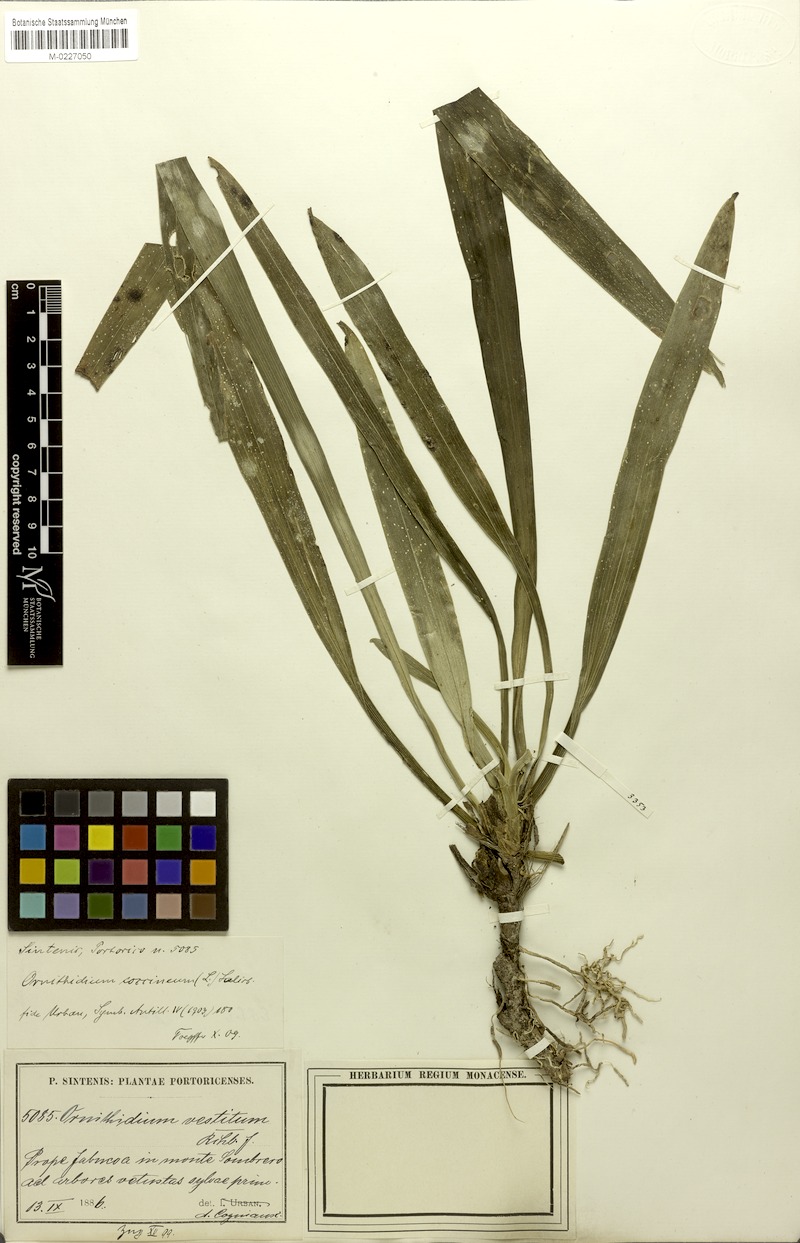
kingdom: Plantae
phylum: Tracheophyta
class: Liliopsida
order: Asparagales
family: Orchidaceae
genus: Maxillaria
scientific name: Maxillaria coccinea
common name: Scarlet flame orchid
